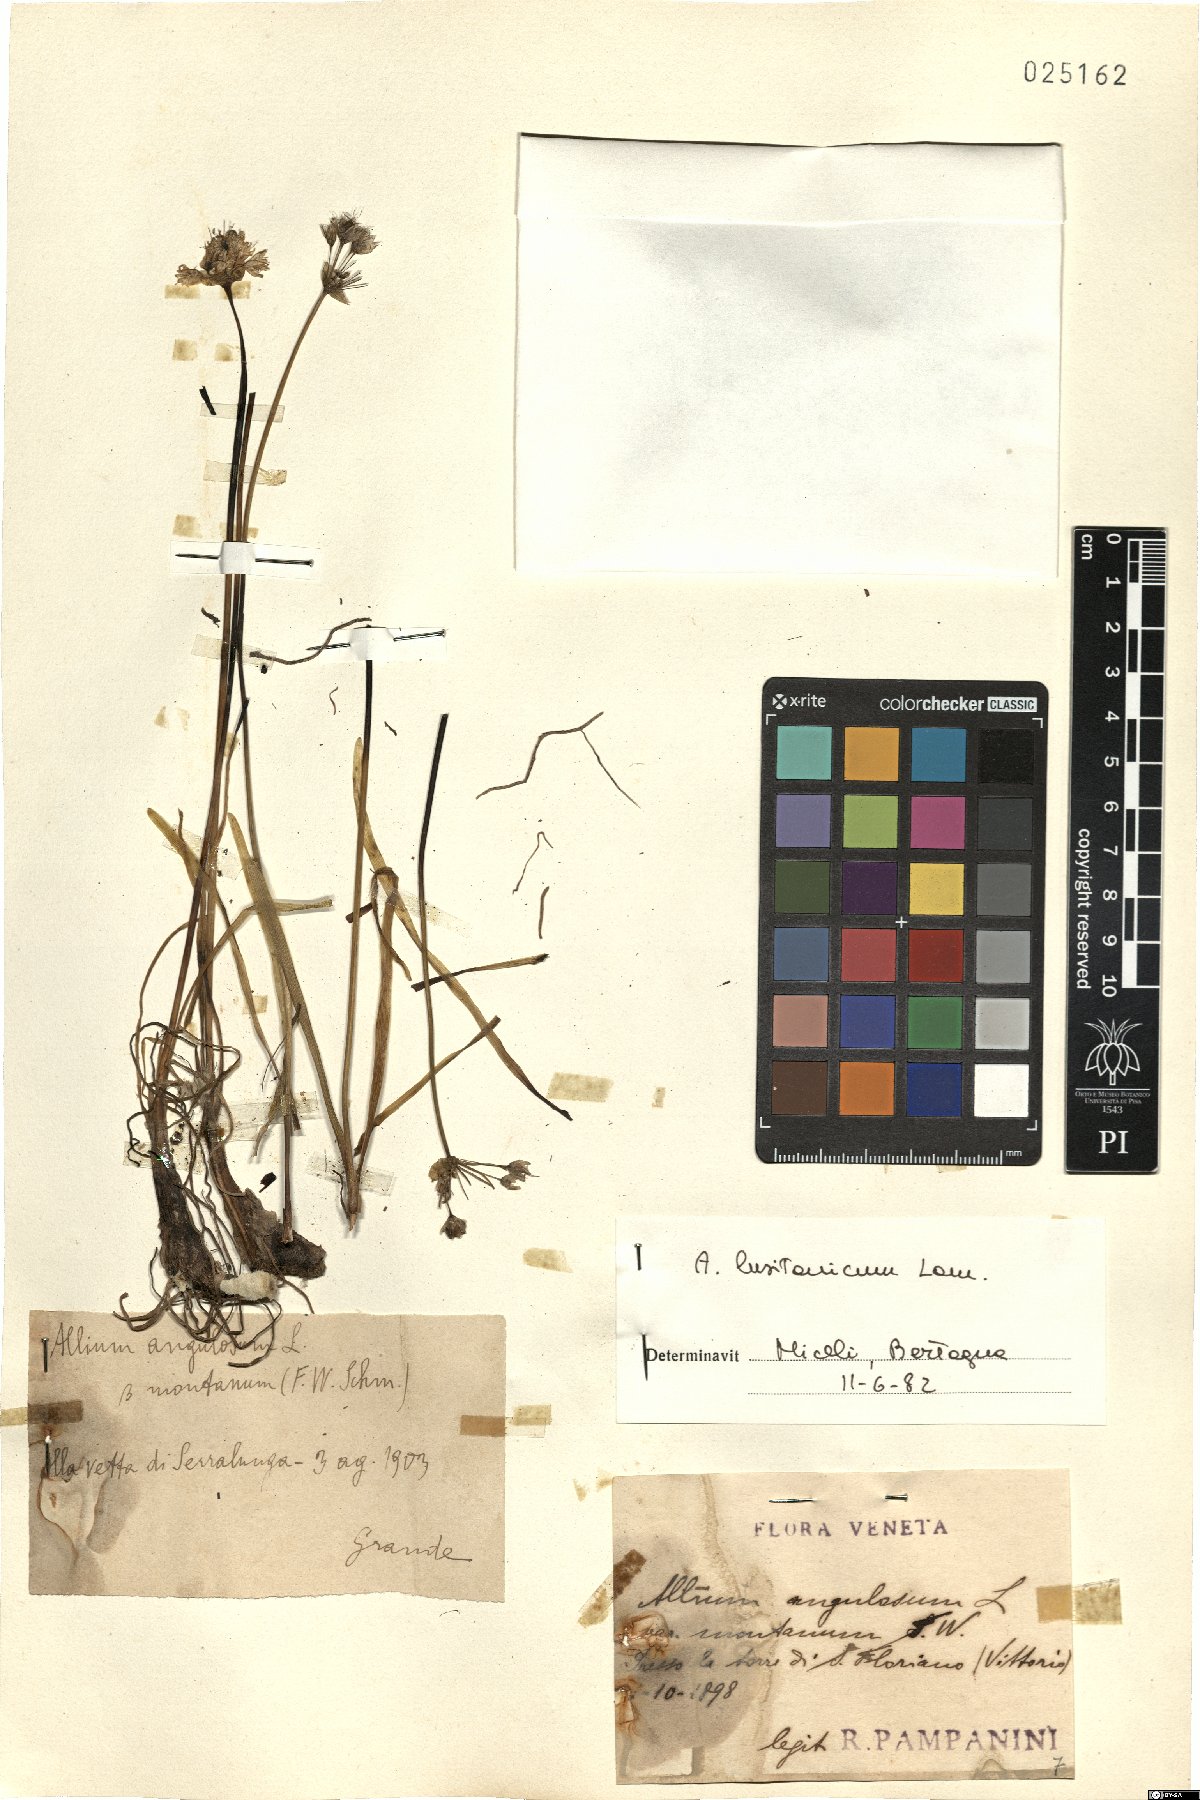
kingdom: Plantae
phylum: Tracheophyta
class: Liliopsida
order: Asparagales
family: Amaryllidaceae
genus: Allium
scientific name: Allium lusitanicum
